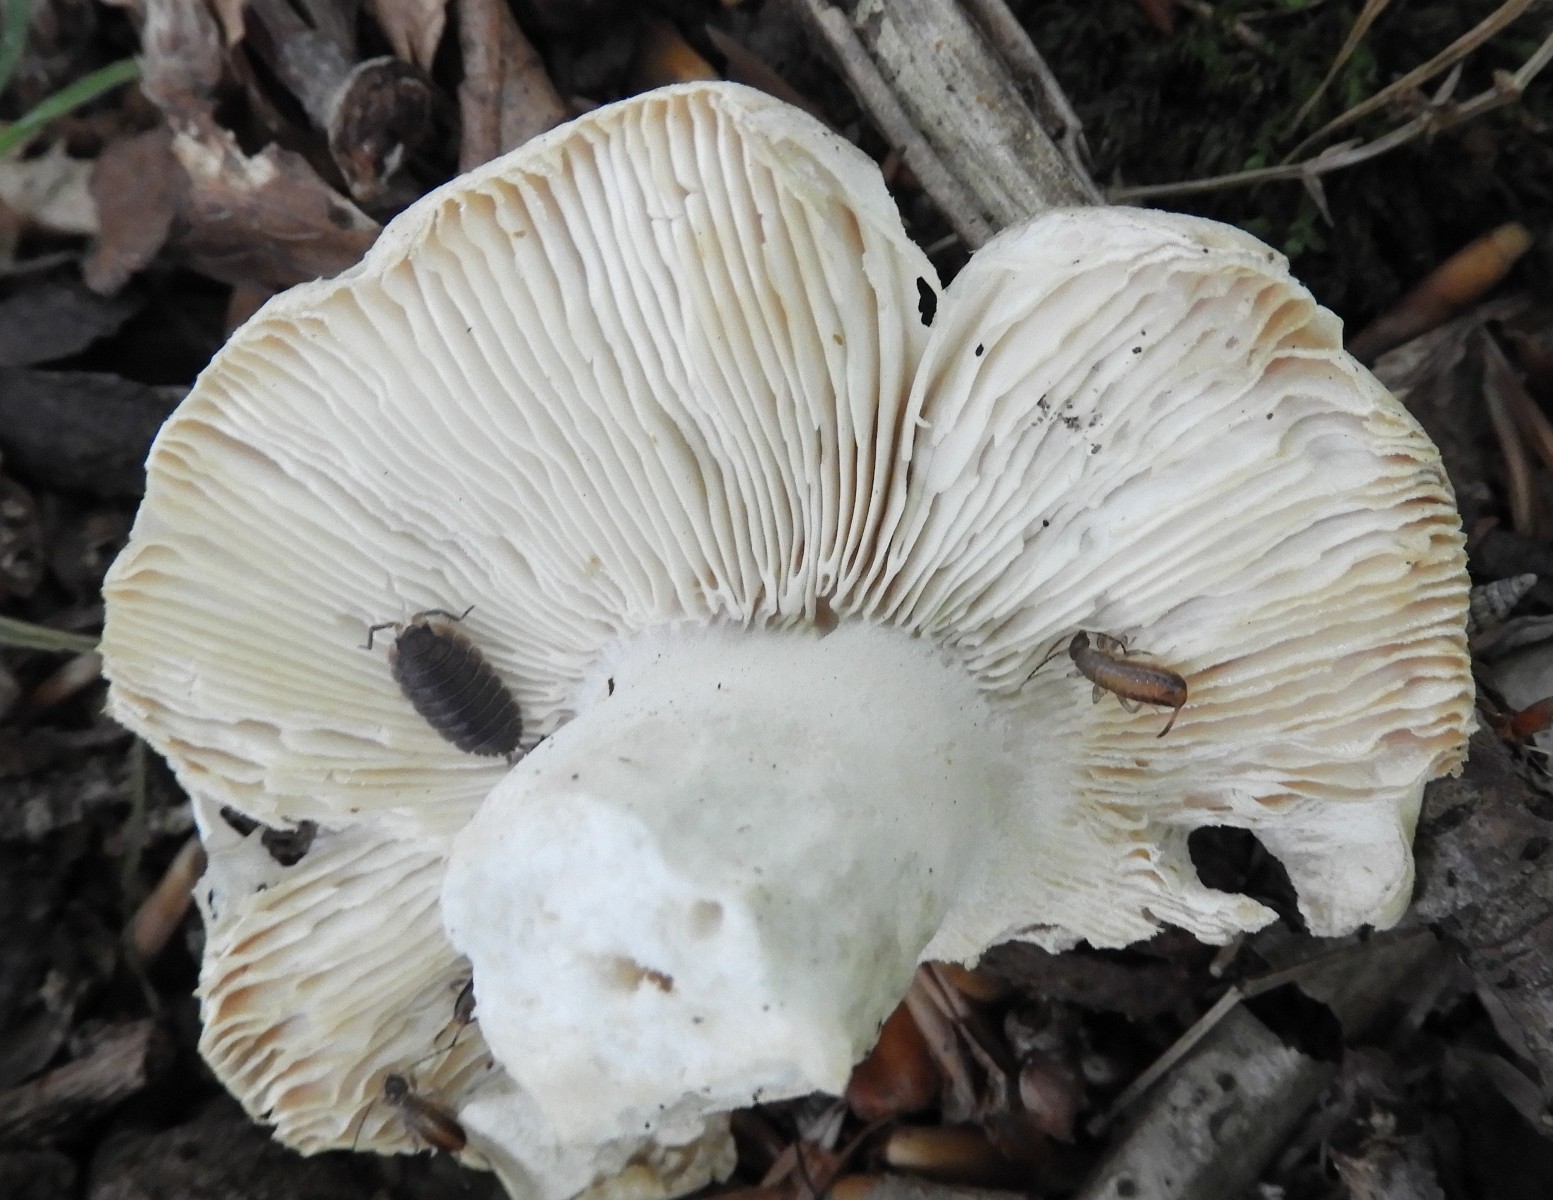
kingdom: Fungi
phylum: Basidiomycota
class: Agaricomycetes
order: Russulales
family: Russulaceae
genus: Russula
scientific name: Russula virescens
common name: spanskgrøn skørhat
